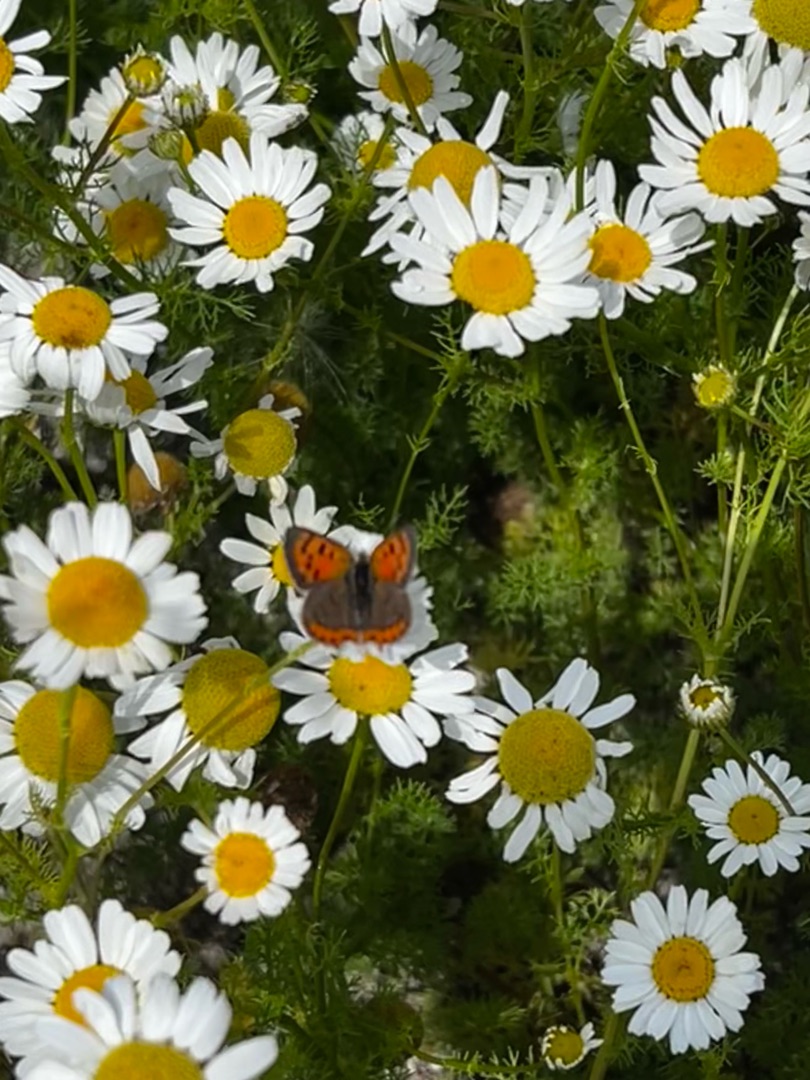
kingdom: Animalia
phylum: Arthropoda
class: Insecta
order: Lepidoptera
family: Lycaenidae
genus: Lycaena
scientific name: Lycaena phlaeas
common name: Lille ildfugl
